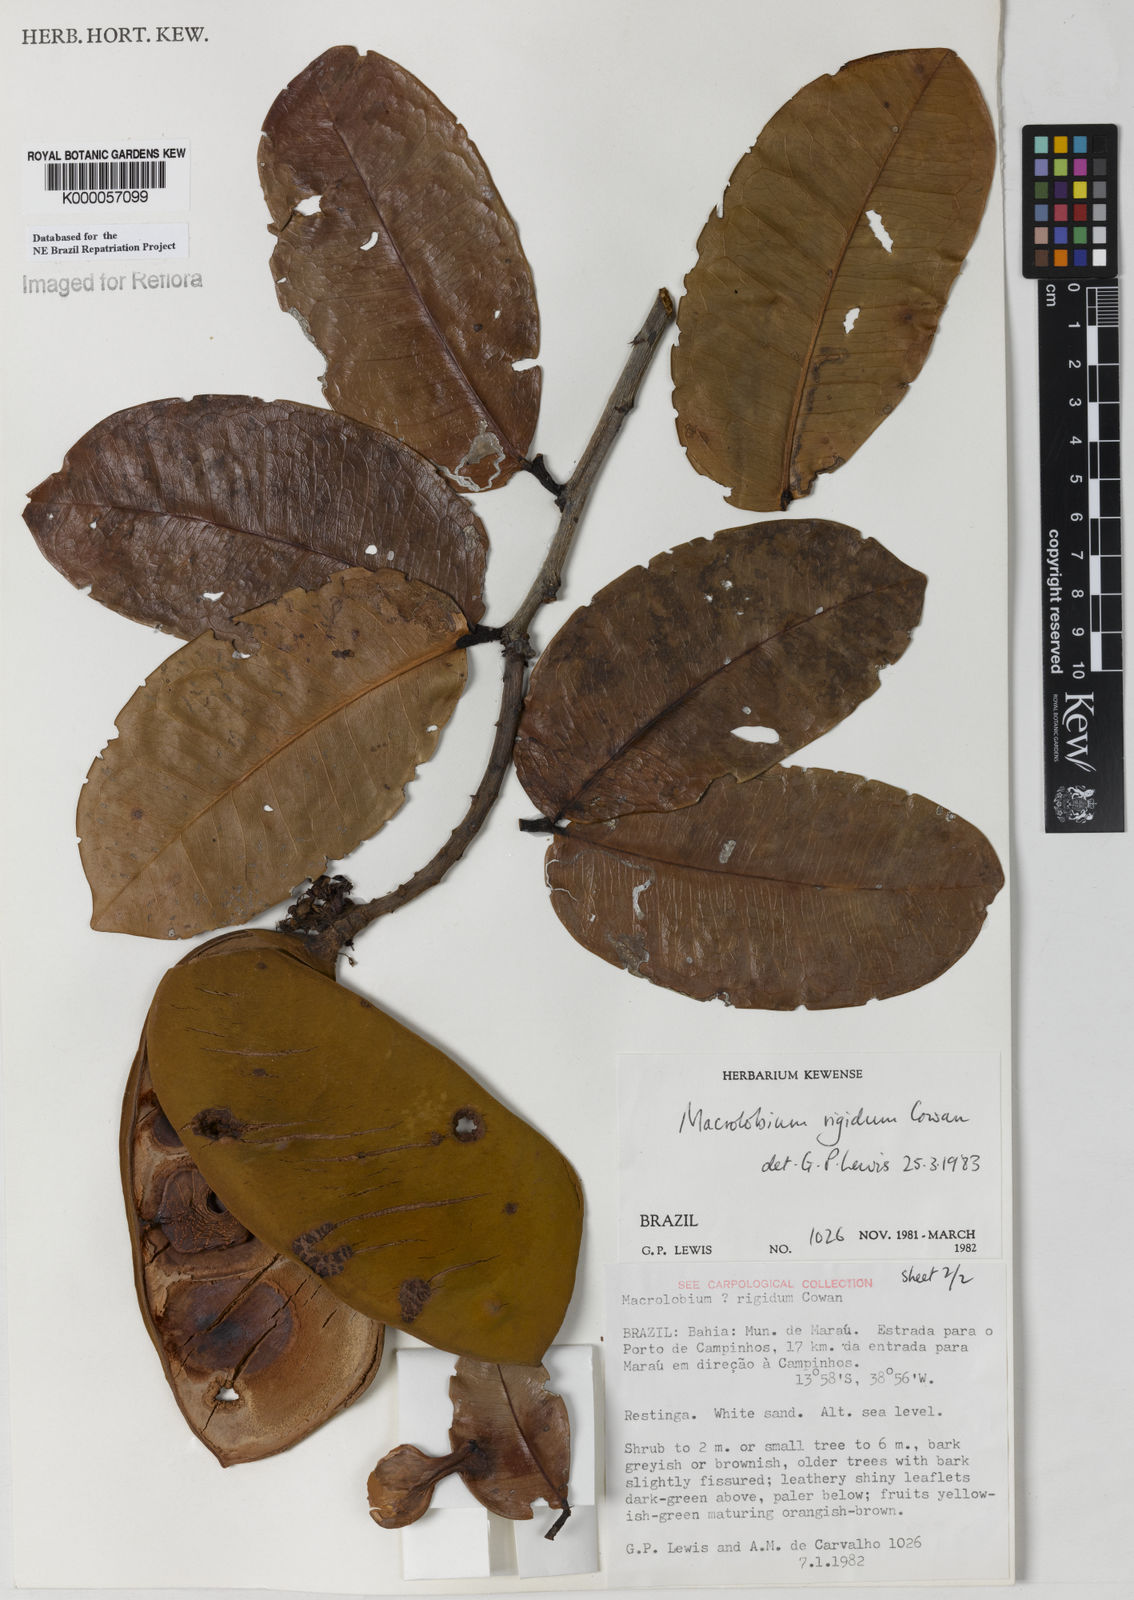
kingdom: Plantae
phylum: Tracheophyta
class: Magnoliopsida
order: Fabales
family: Fabaceae
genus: Macrolobium
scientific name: Macrolobium rigidum
